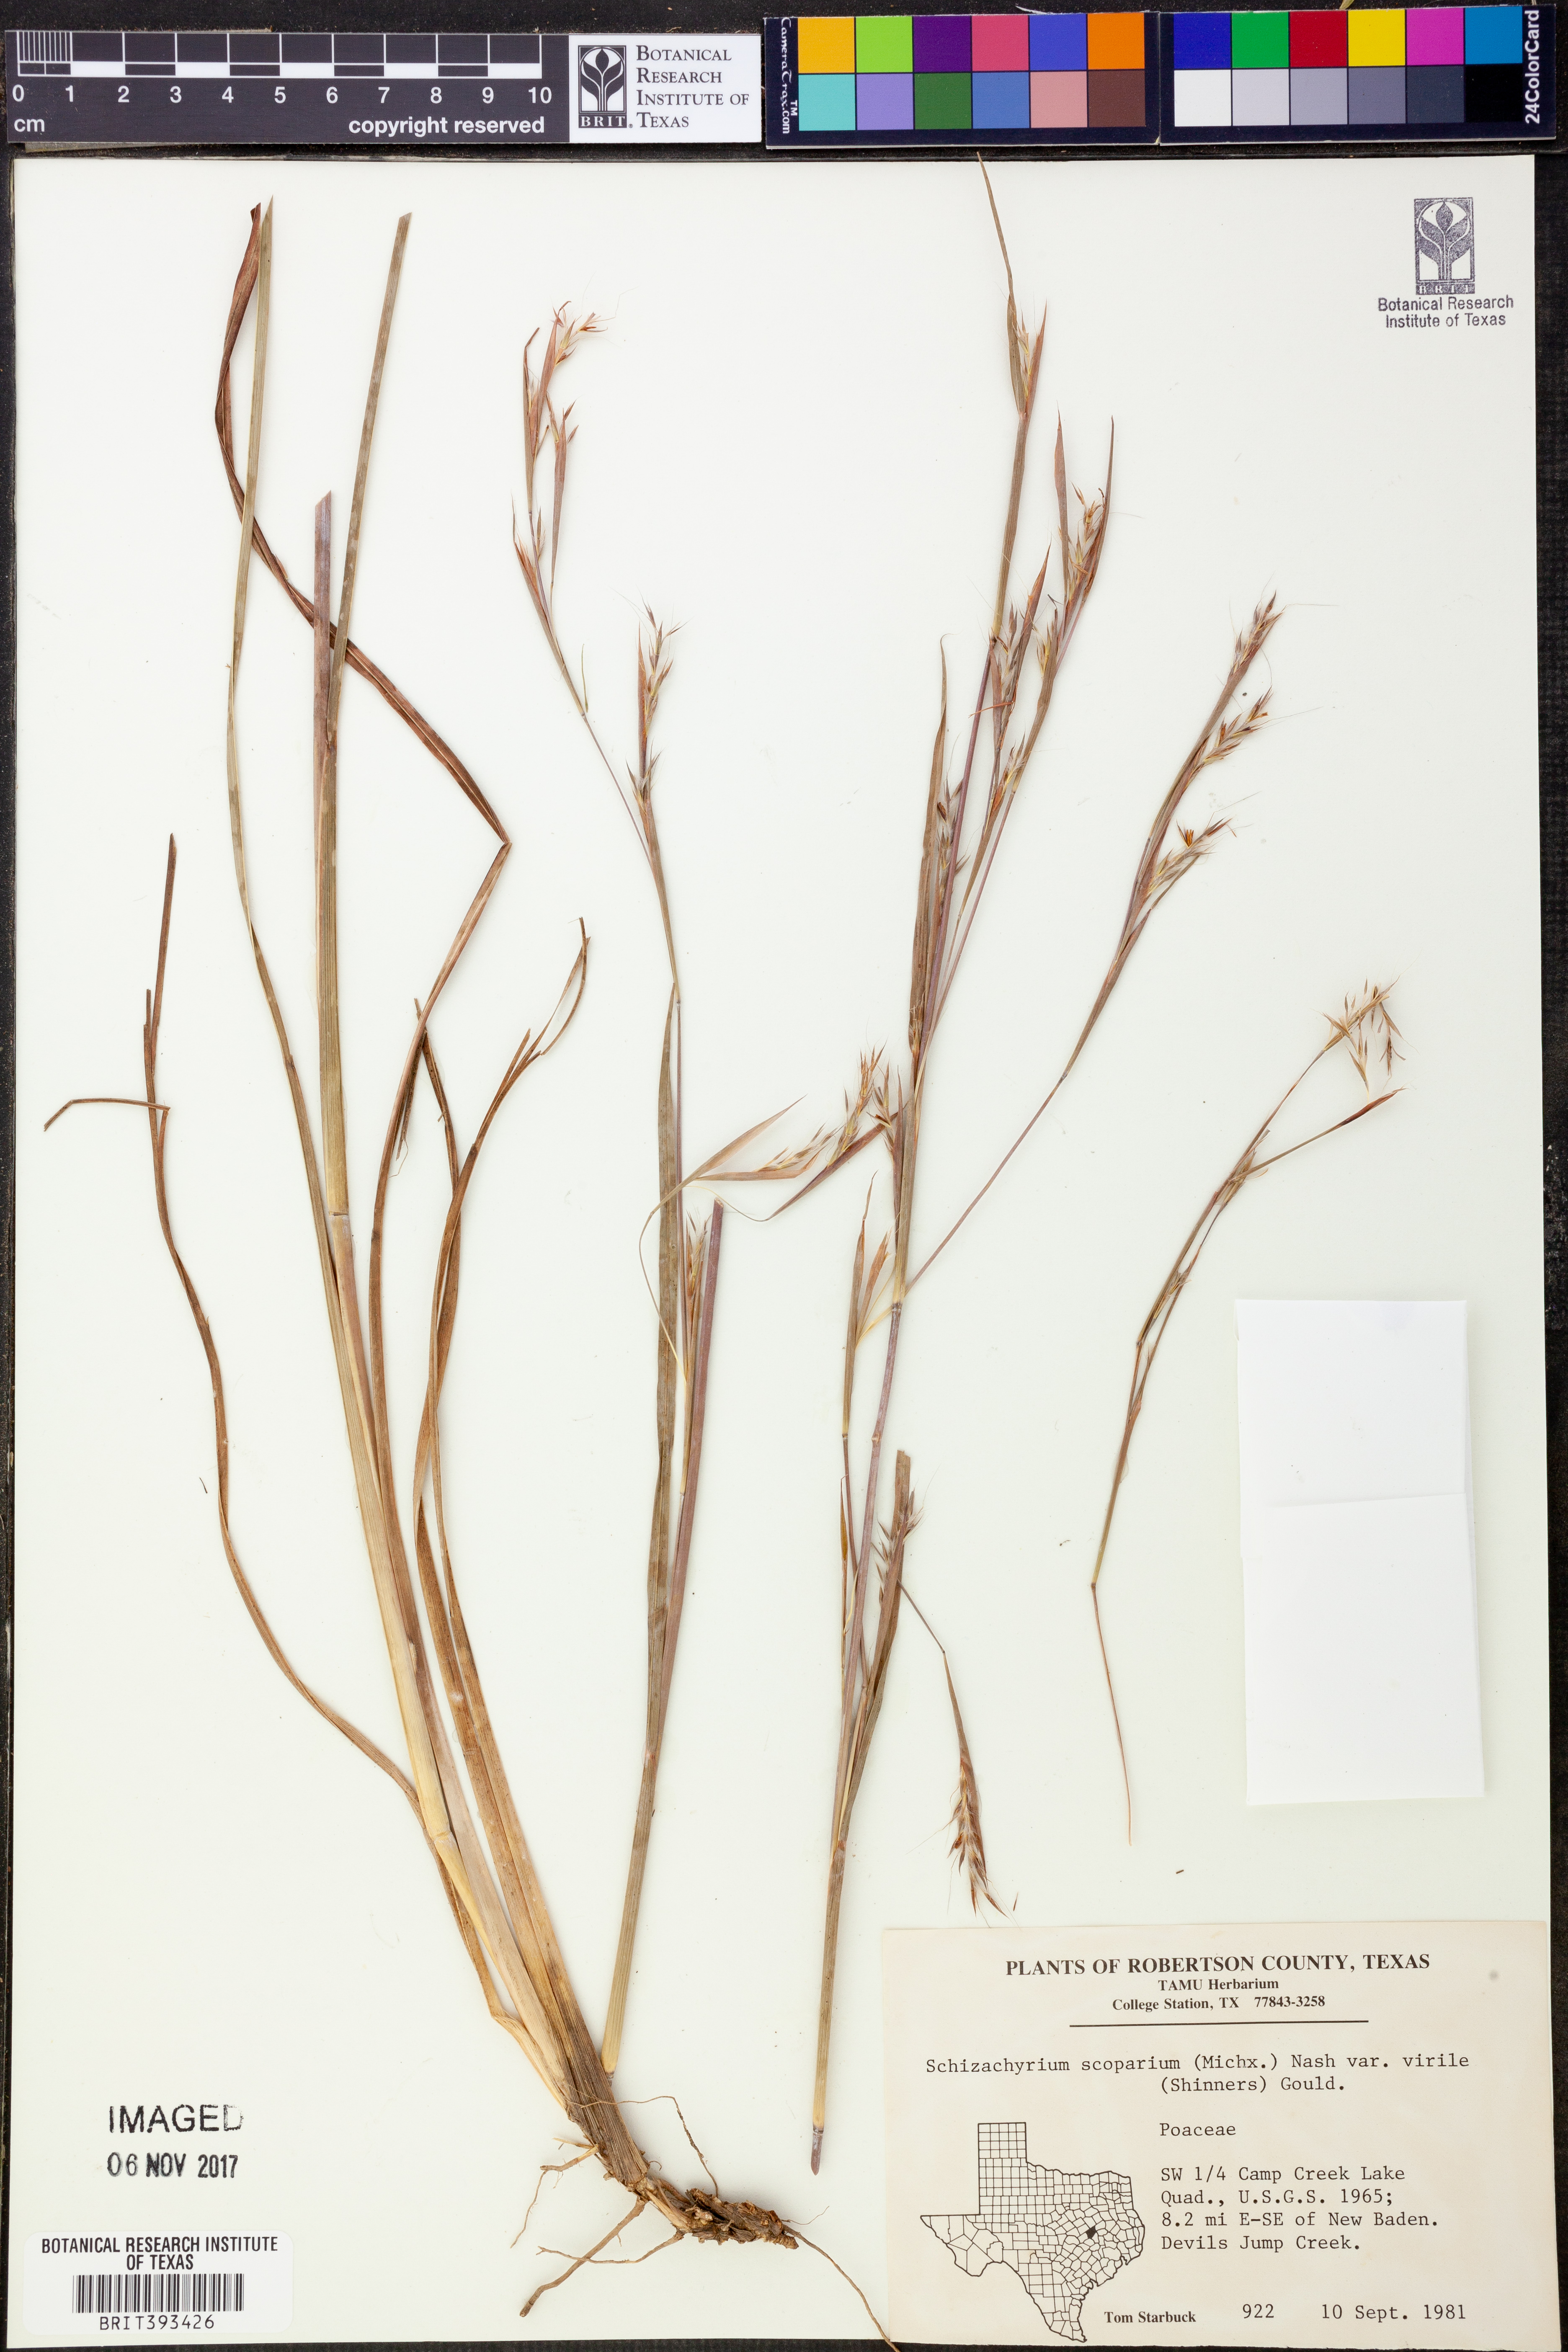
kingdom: Plantae
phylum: Tracheophyta
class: Liliopsida
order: Poales
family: Poaceae
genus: Schizachyrium
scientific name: Schizachyrium scoparium
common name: Little bluestem
